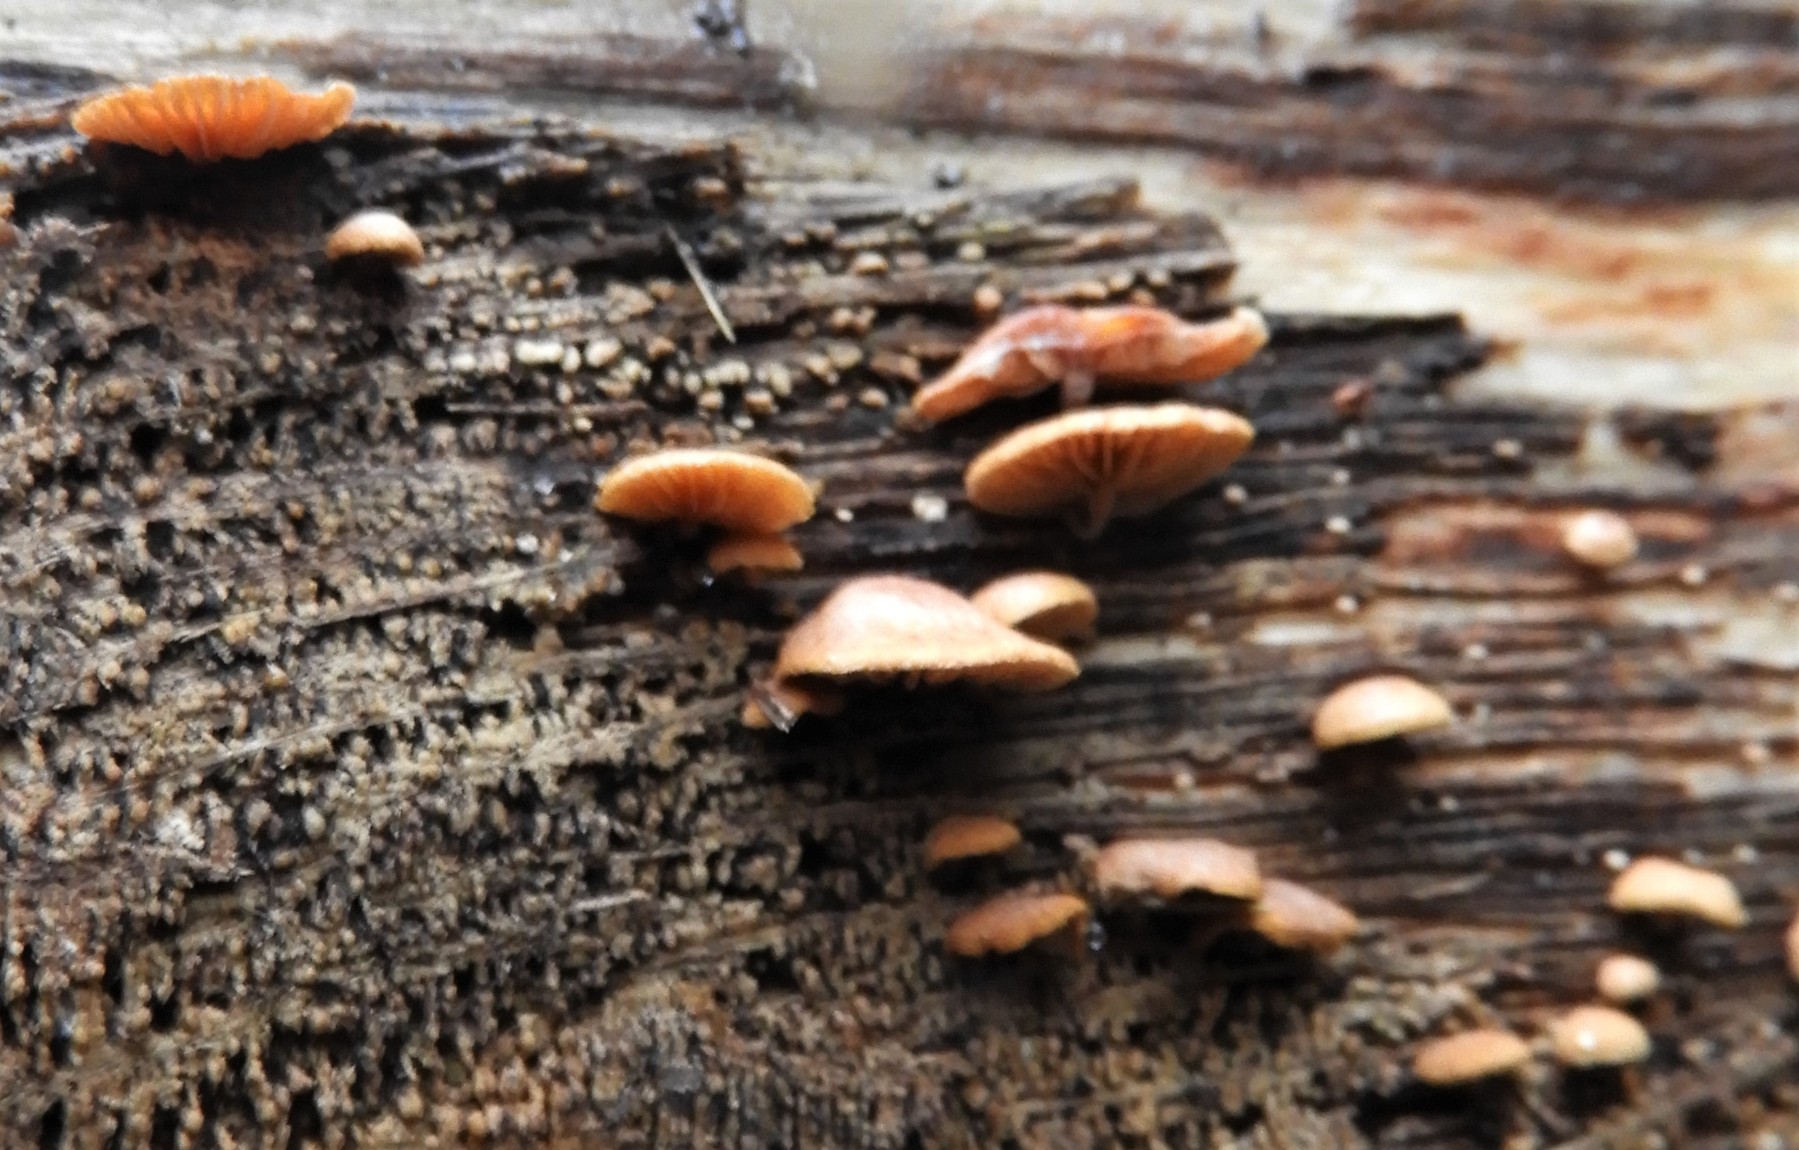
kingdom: Fungi
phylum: Basidiomycota
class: Agaricomycetes
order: Agaricales
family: Strophariaceae
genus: Deconica
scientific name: Deconica horizontalis
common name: ved-stråhat
